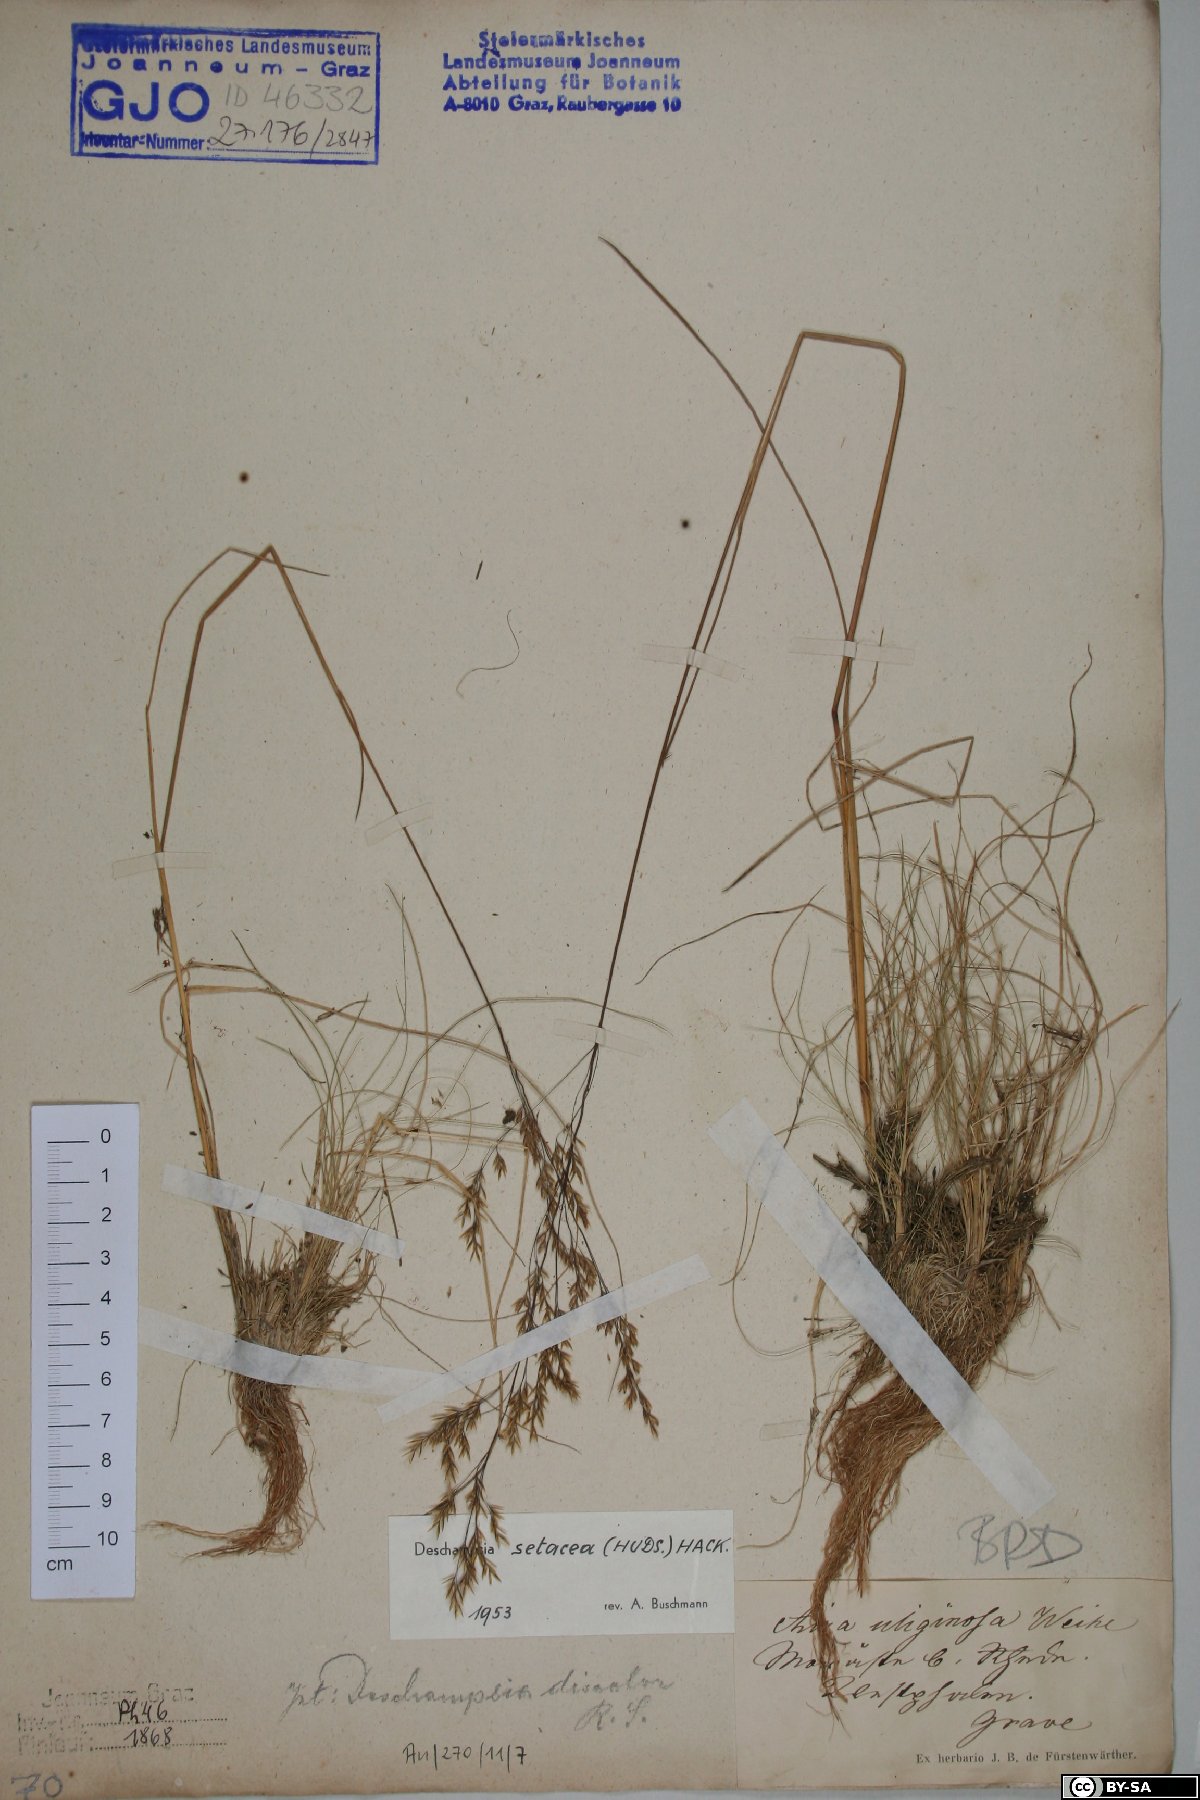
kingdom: Plantae
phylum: Tracheophyta
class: Liliopsida
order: Poales
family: Poaceae
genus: Deschampsia
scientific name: Deschampsia setacea
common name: Bog hair-grass
